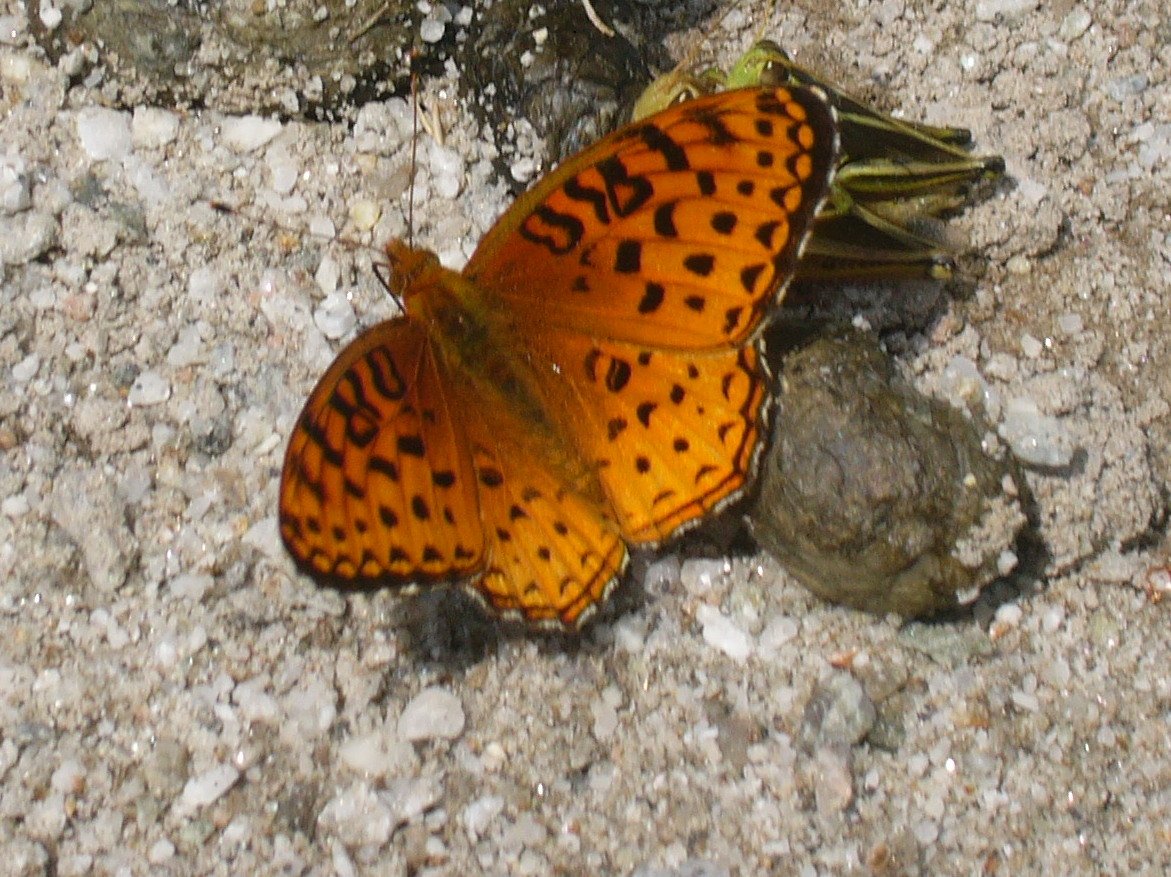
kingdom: Animalia
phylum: Arthropoda
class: Insecta
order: Lepidoptera
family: Nymphalidae
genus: Speyeria
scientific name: Speyeria aphrodite
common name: Aphrodite Fritillary
